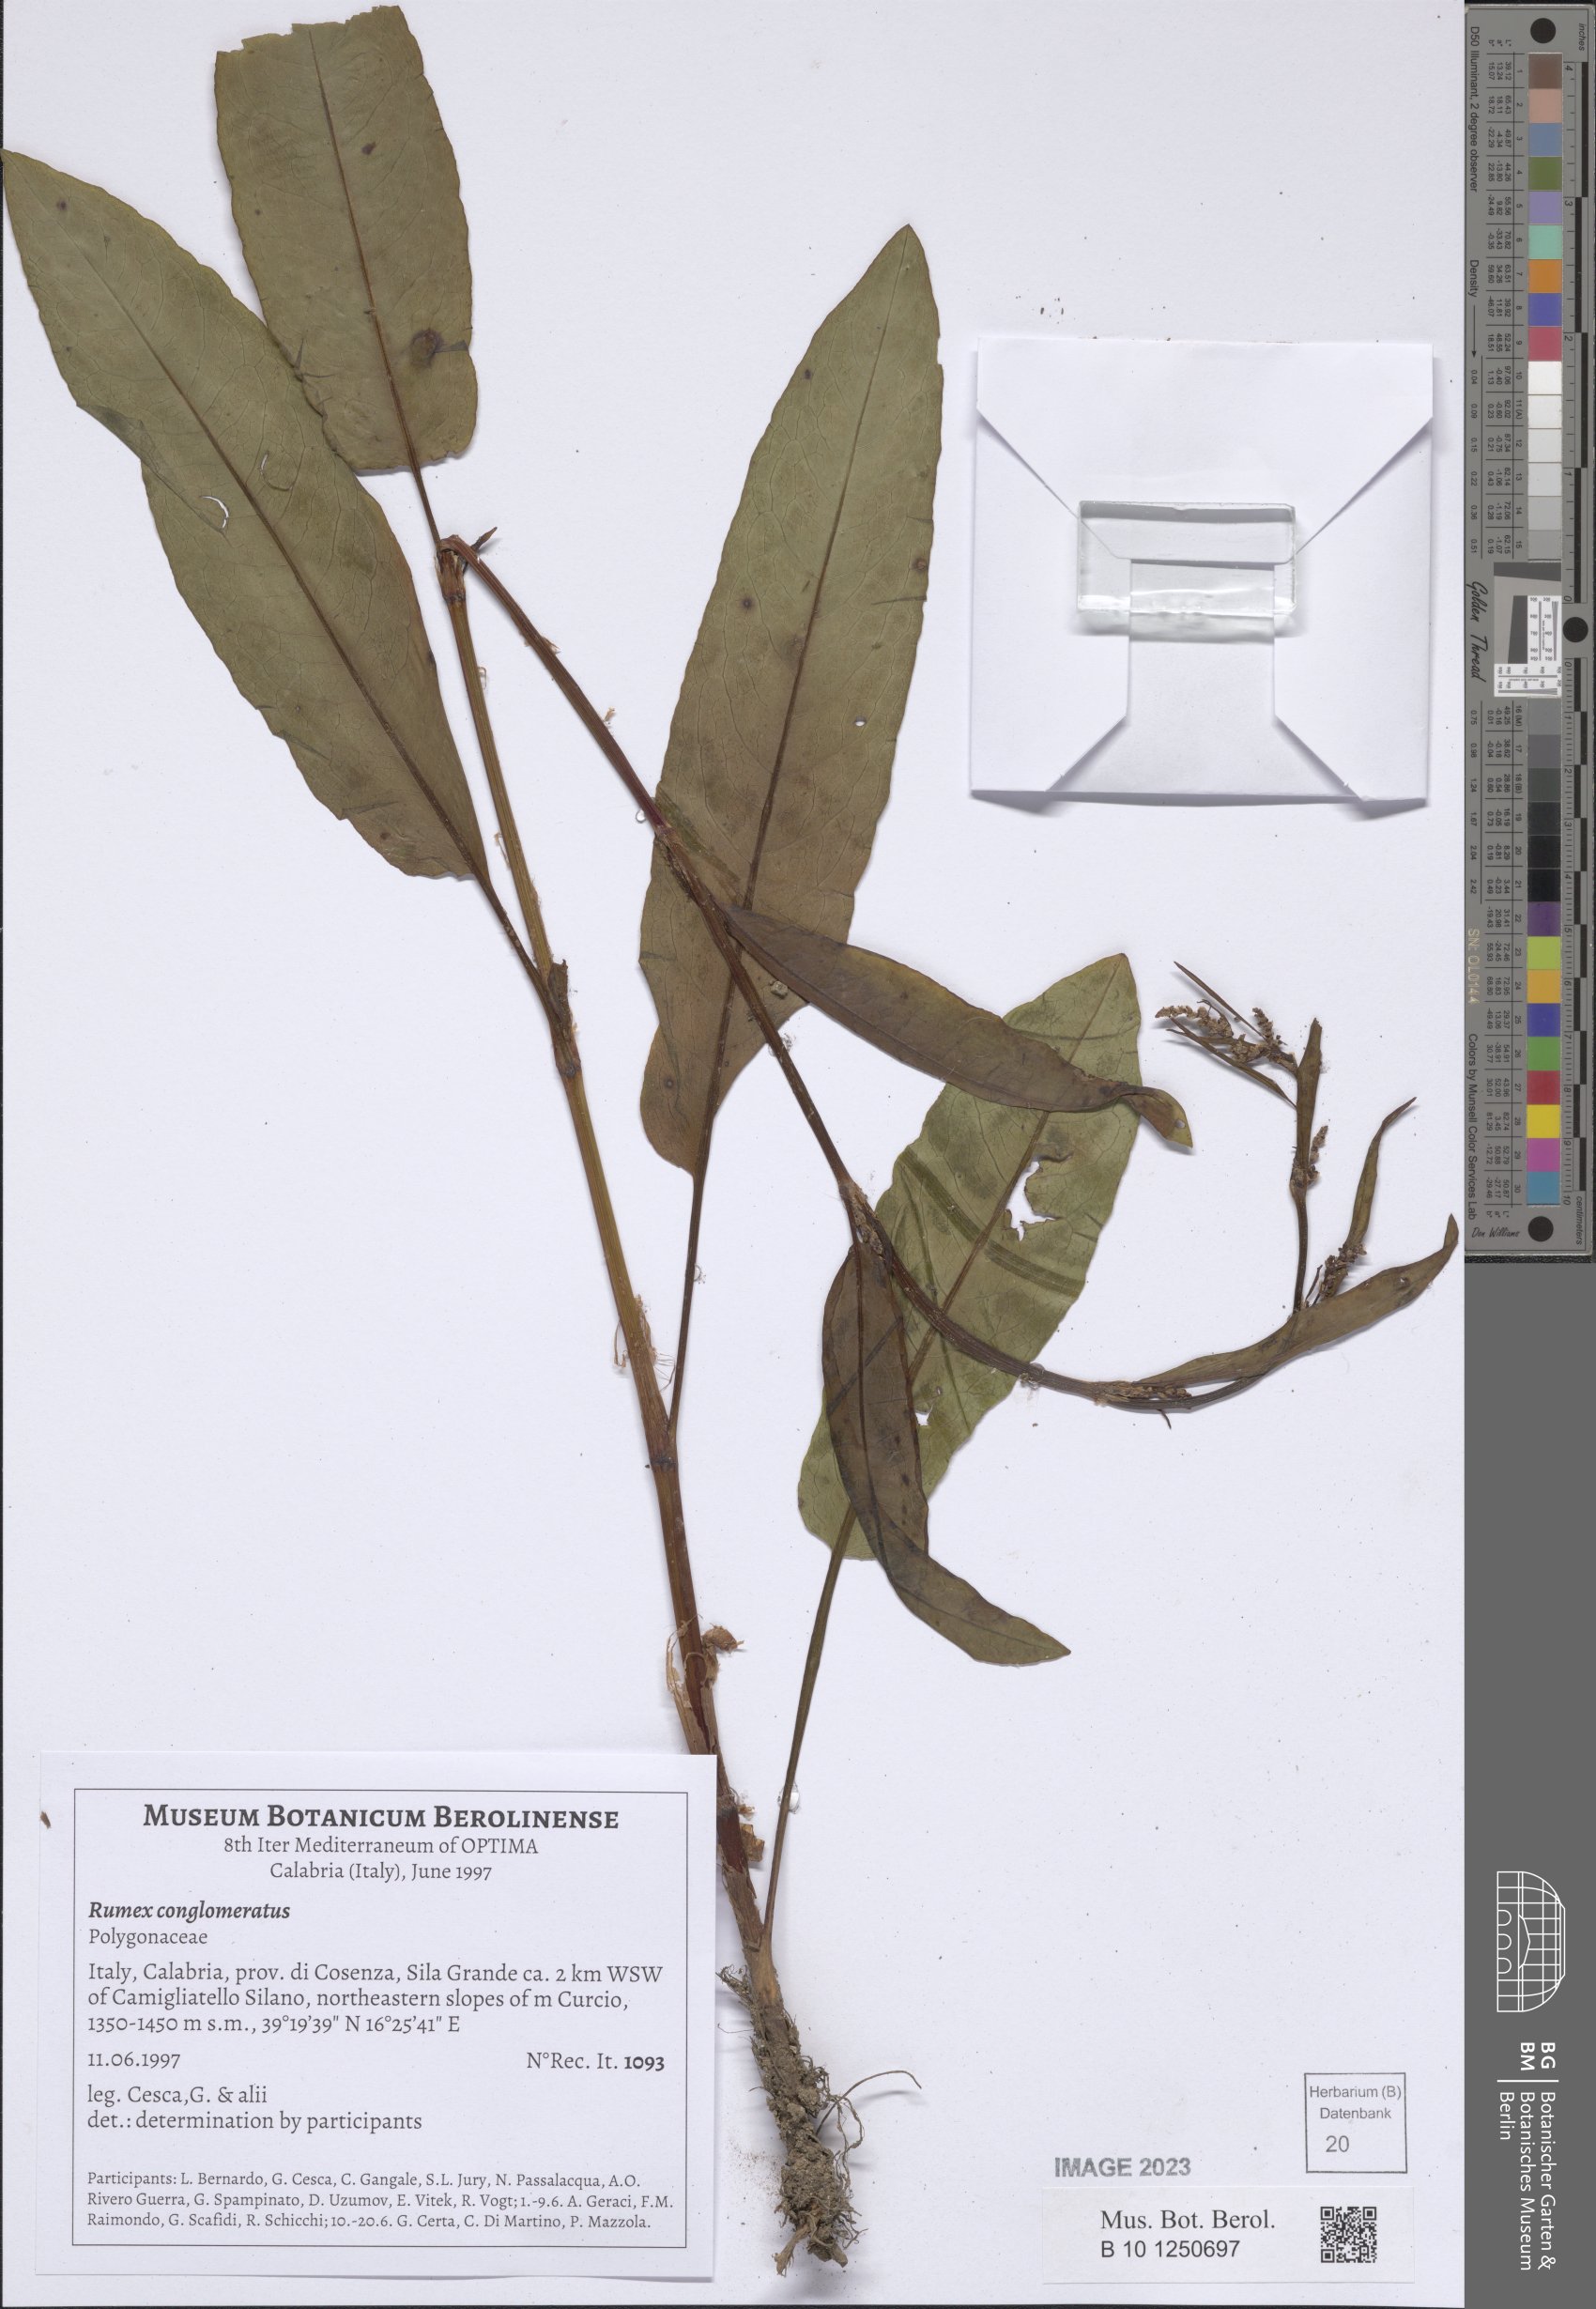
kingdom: Plantae
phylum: Tracheophyta
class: Magnoliopsida
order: Caryophyllales
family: Polygonaceae
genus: Rumex
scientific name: Rumex conglomeratus
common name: Clustered dock
